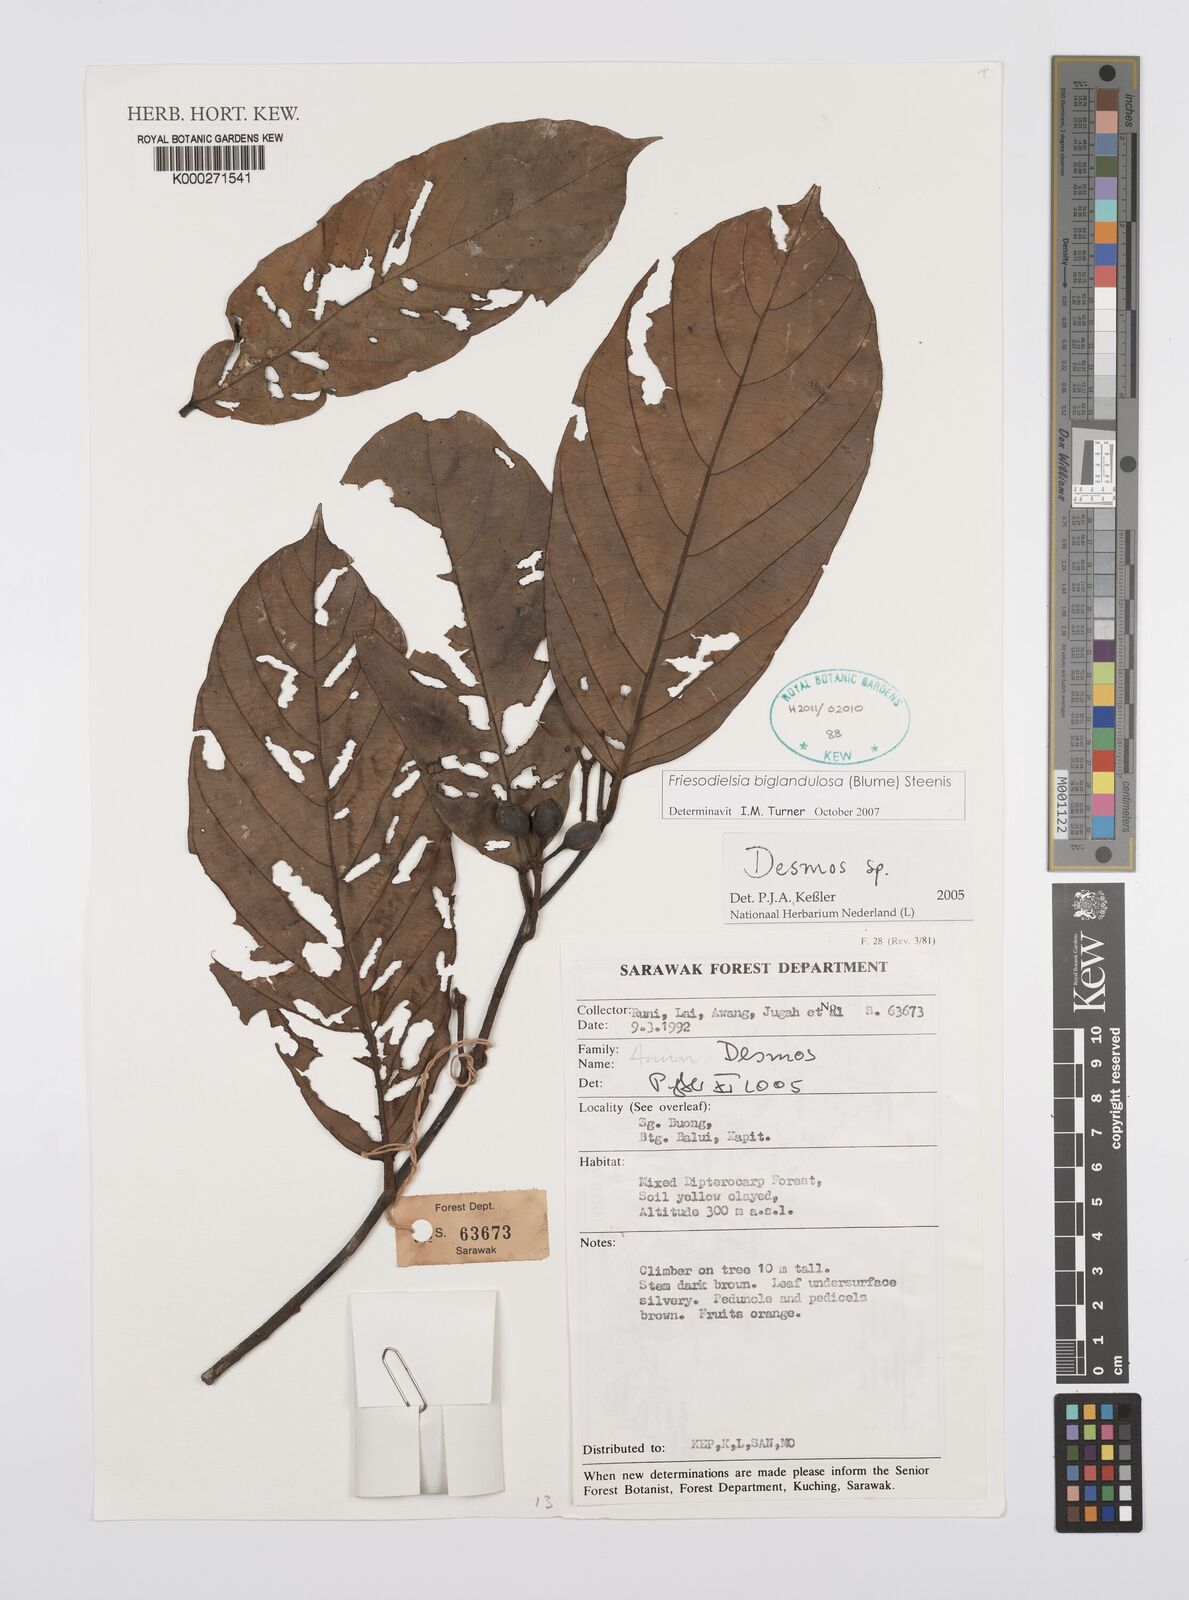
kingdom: Plantae
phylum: Tracheophyta
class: Magnoliopsida
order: Magnoliales
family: Annonaceae
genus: Desmos
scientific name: Desmos
